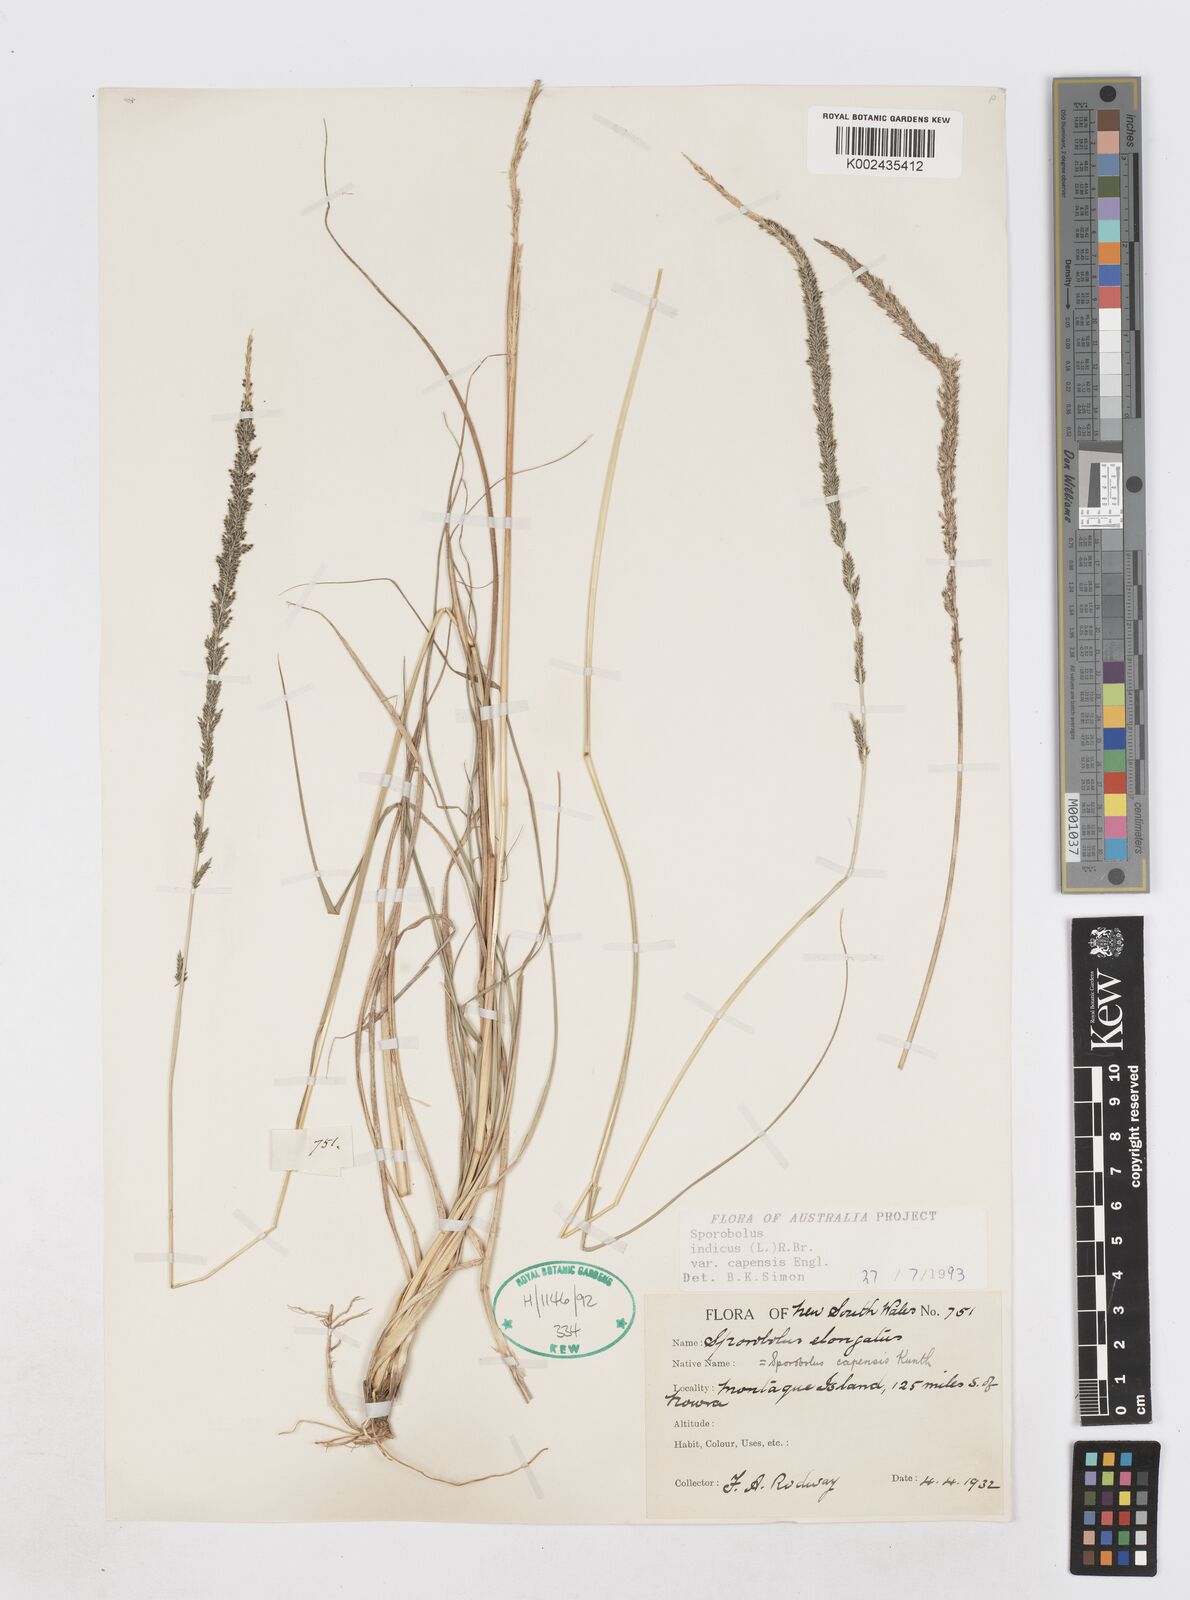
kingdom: Plantae
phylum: Tracheophyta
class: Liliopsida
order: Poales
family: Poaceae
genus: Sporobolus
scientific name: Sporobolus africanus
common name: African dropseed
